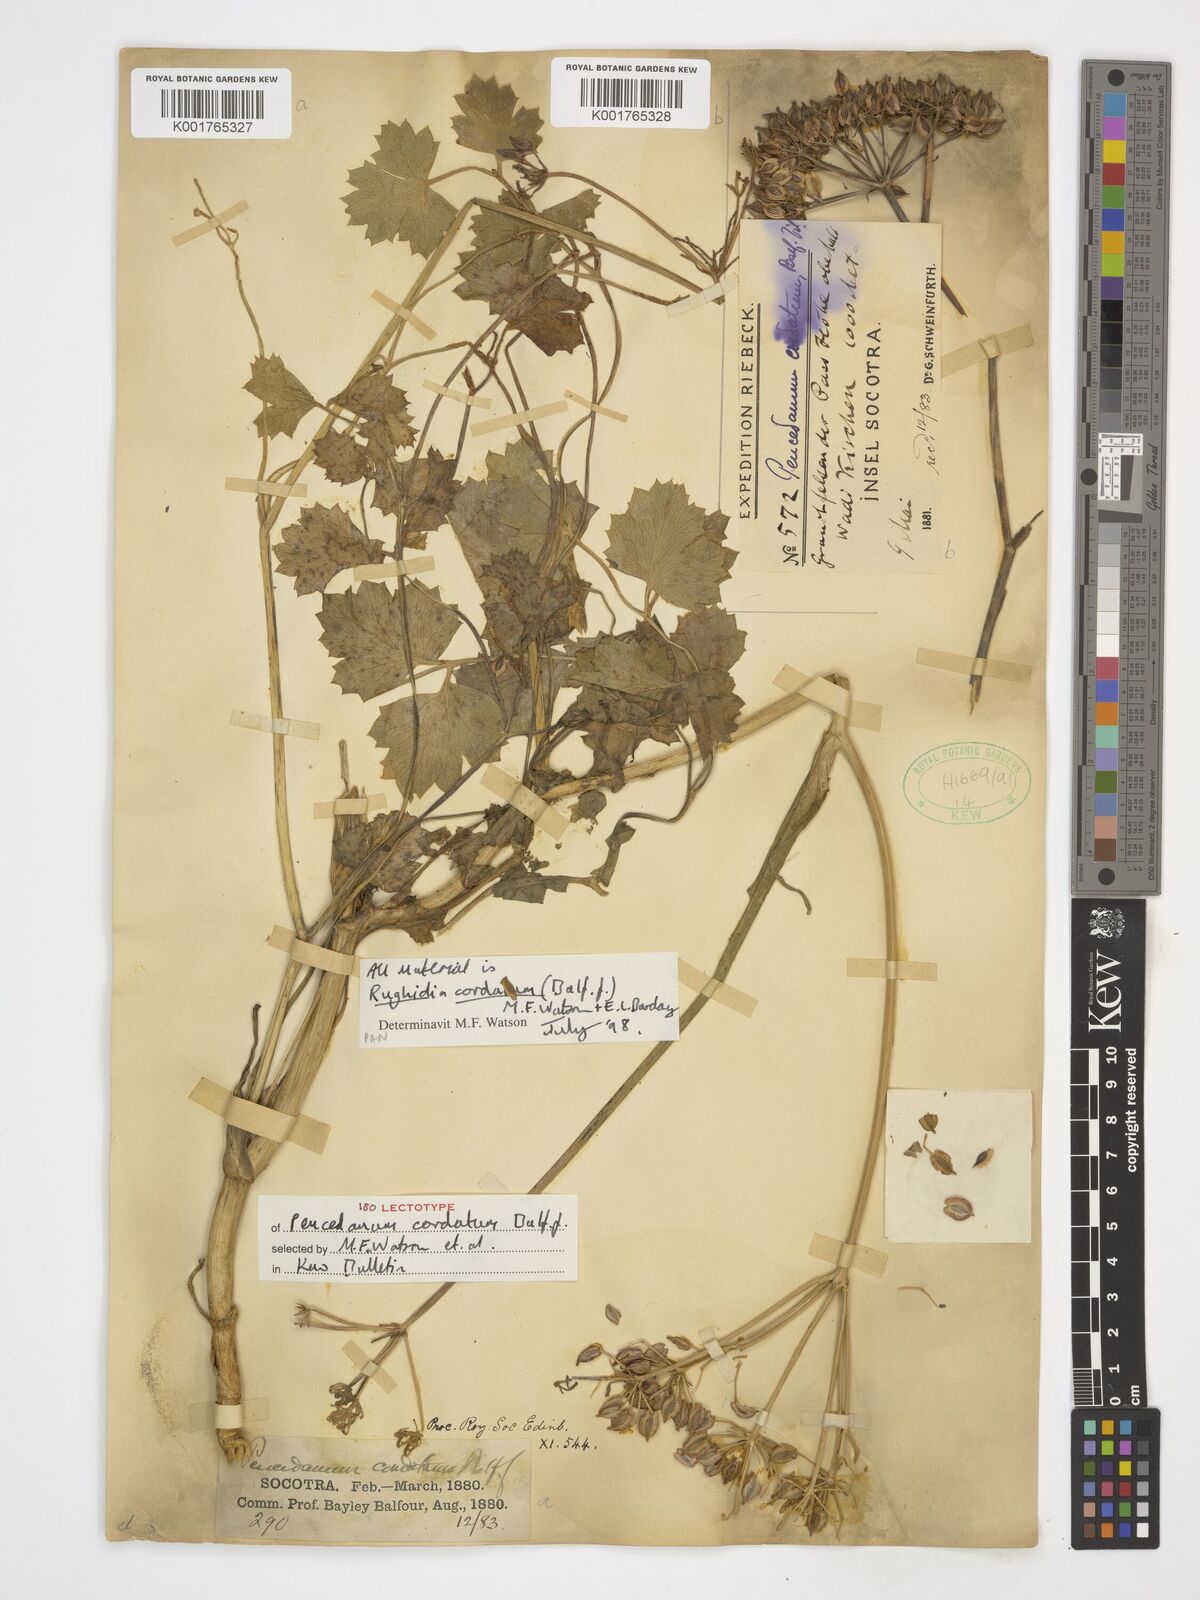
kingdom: Plantae
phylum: Tracheophyta
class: Magnoliopsida
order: Apiales
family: Apiaceae
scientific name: Apiaceae
